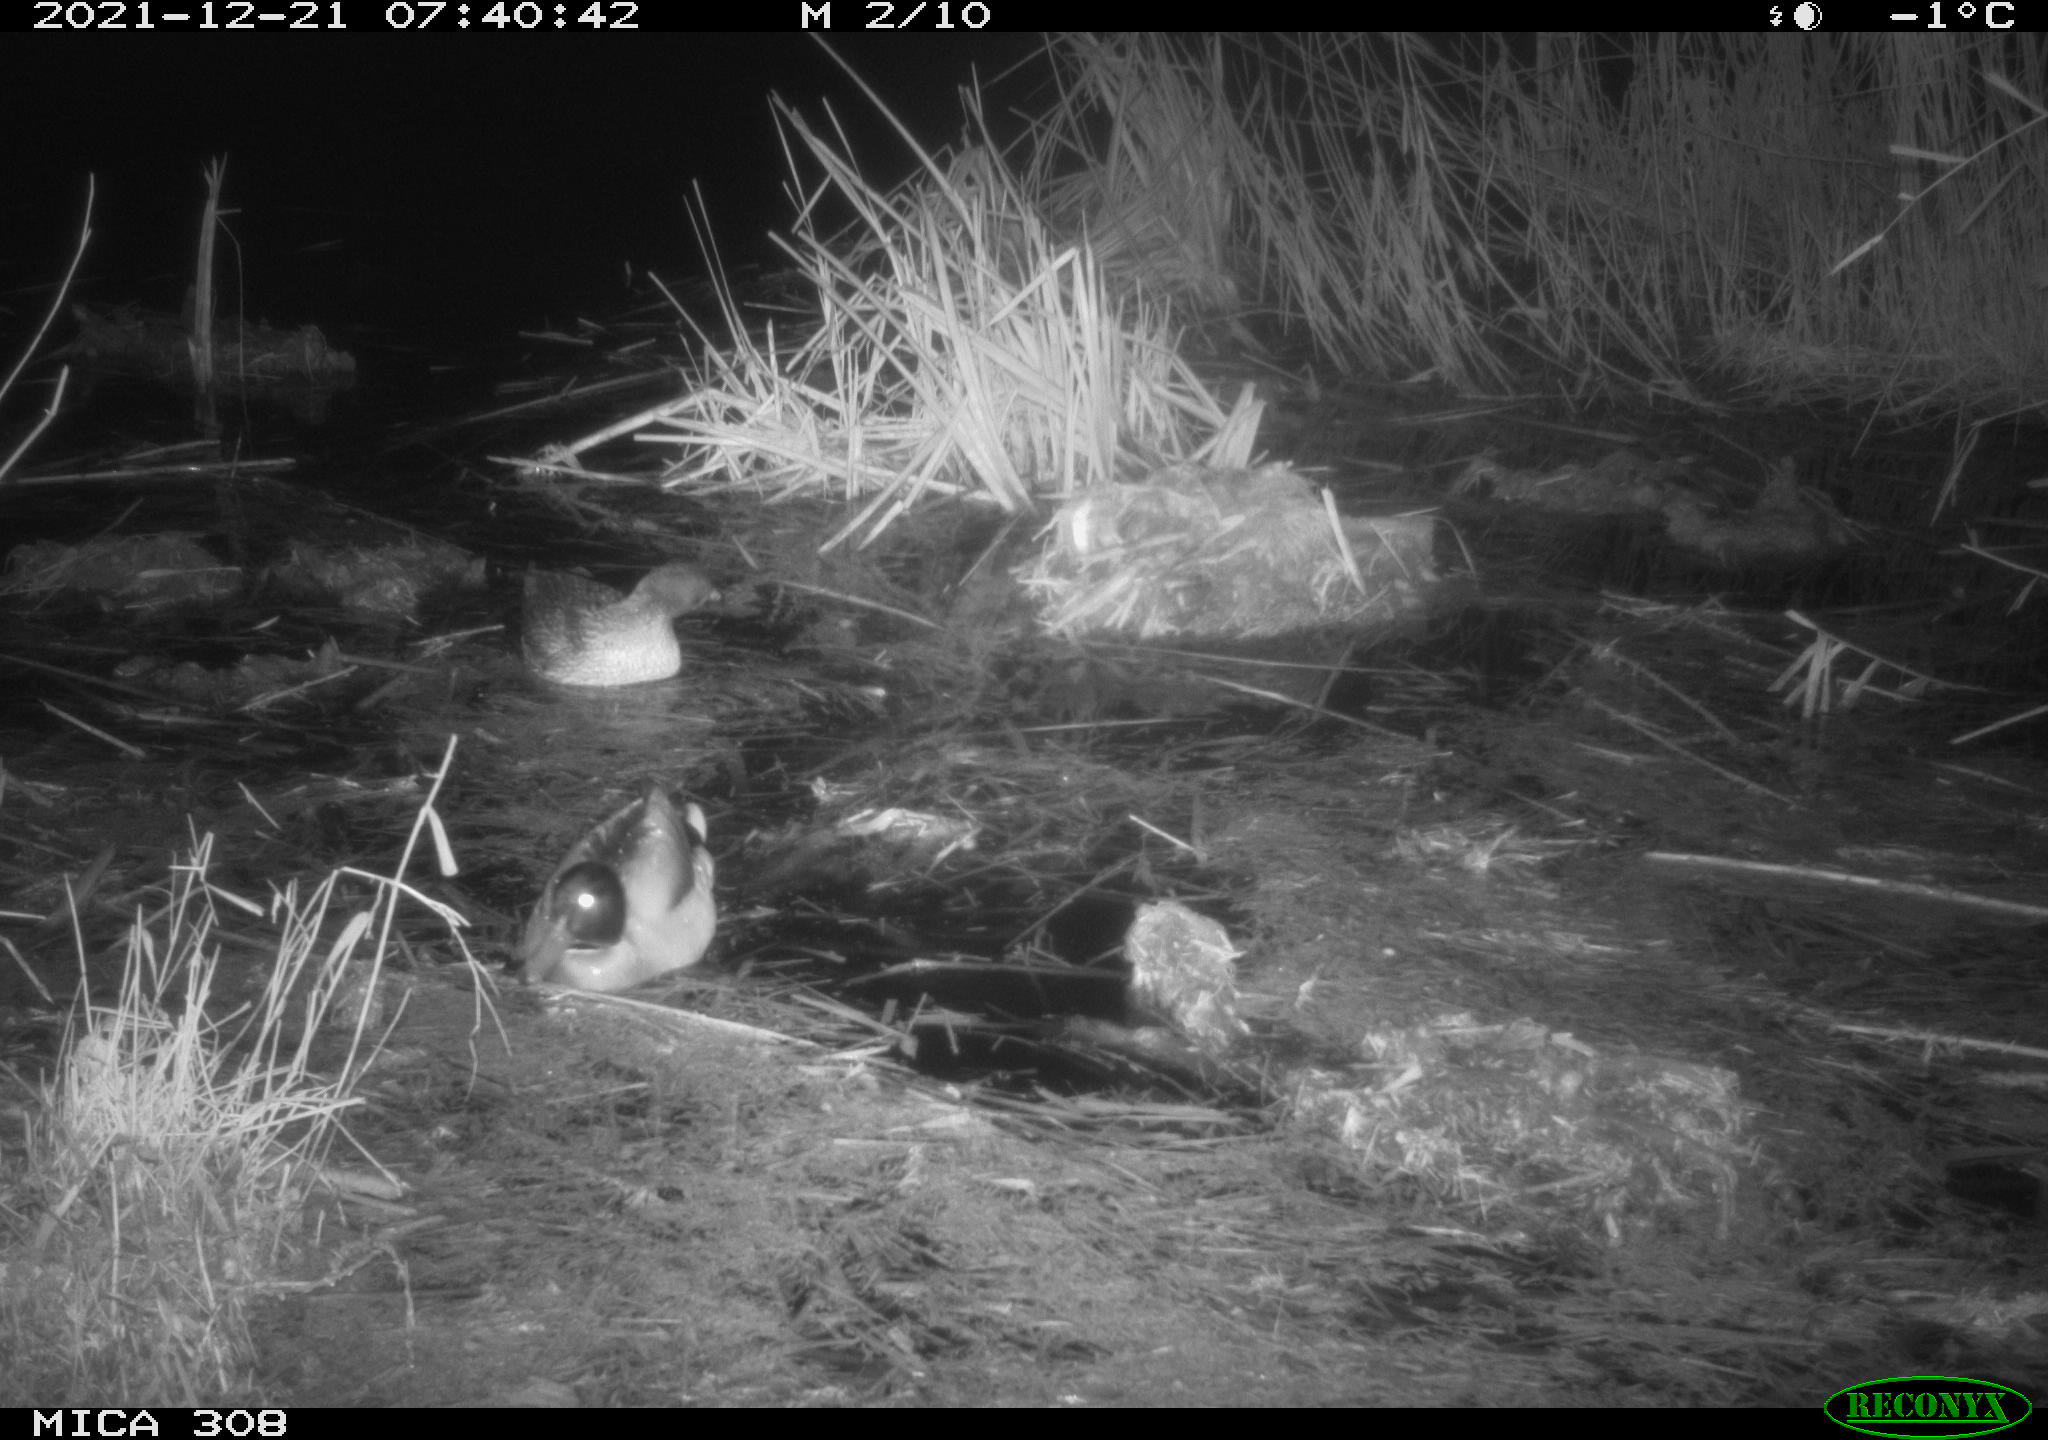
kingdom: Animalia
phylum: Chordata
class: Aves
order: Anseriformes
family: Anatidae
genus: Anas
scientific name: Anas platyrhynchos
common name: Mallard
